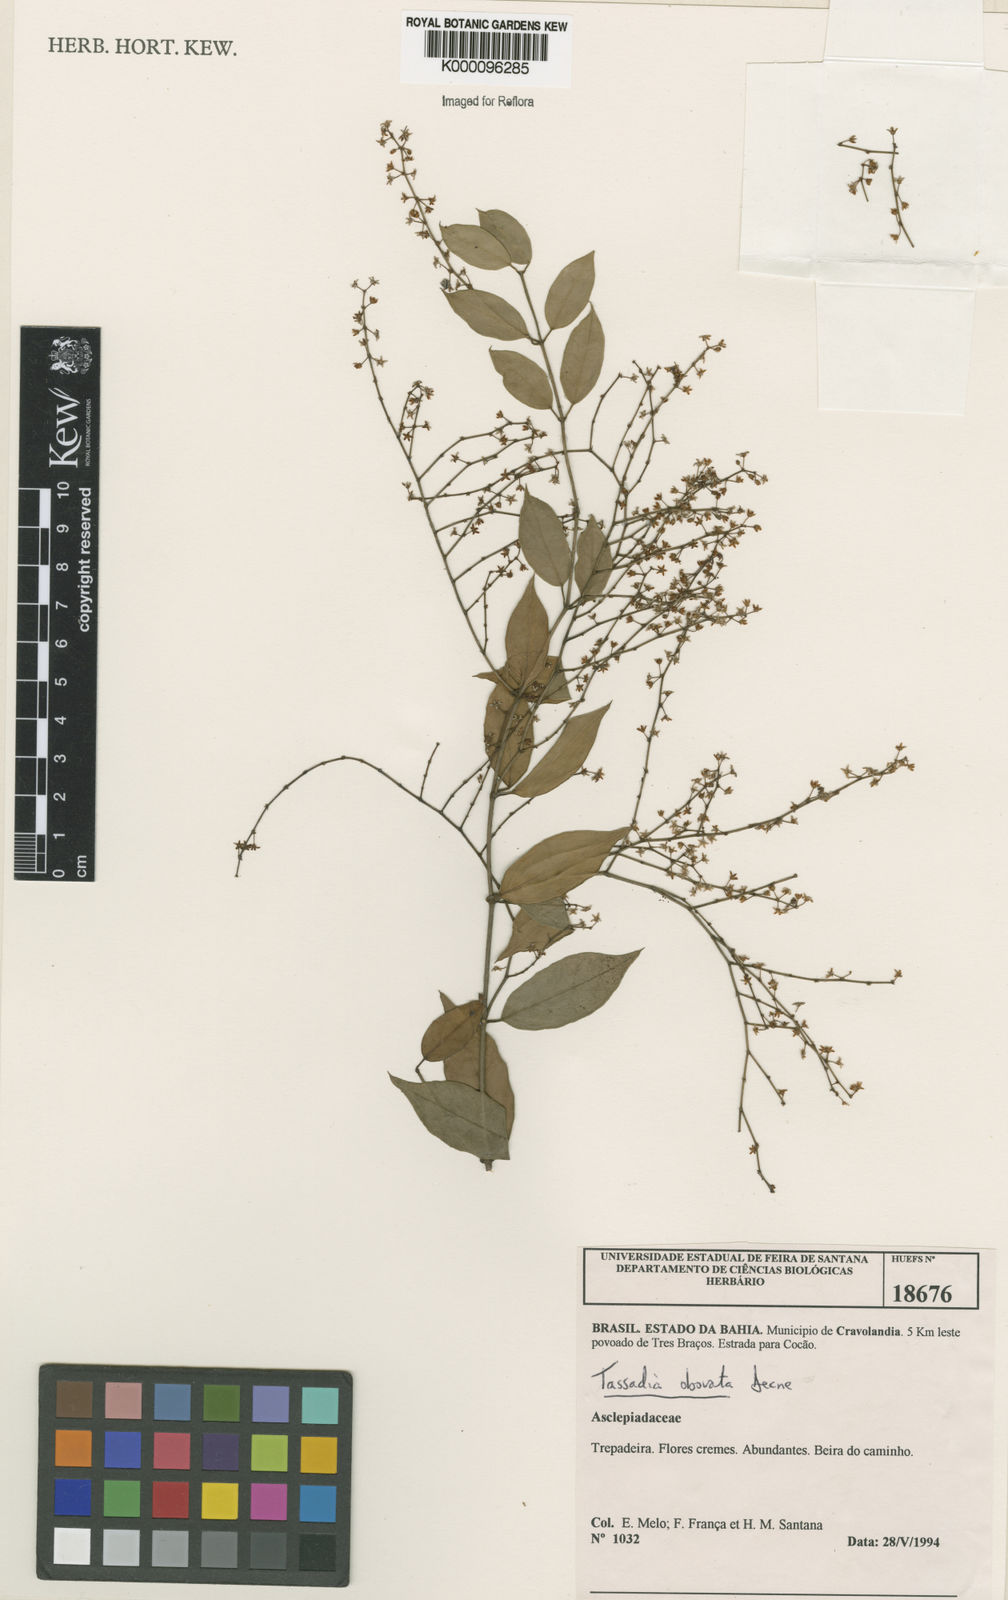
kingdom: Plantae
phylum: Tracheophyta
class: Magnoliopsida
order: Gentianales
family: Apocynaceae
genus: Tassadia
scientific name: Tassadia obovata
